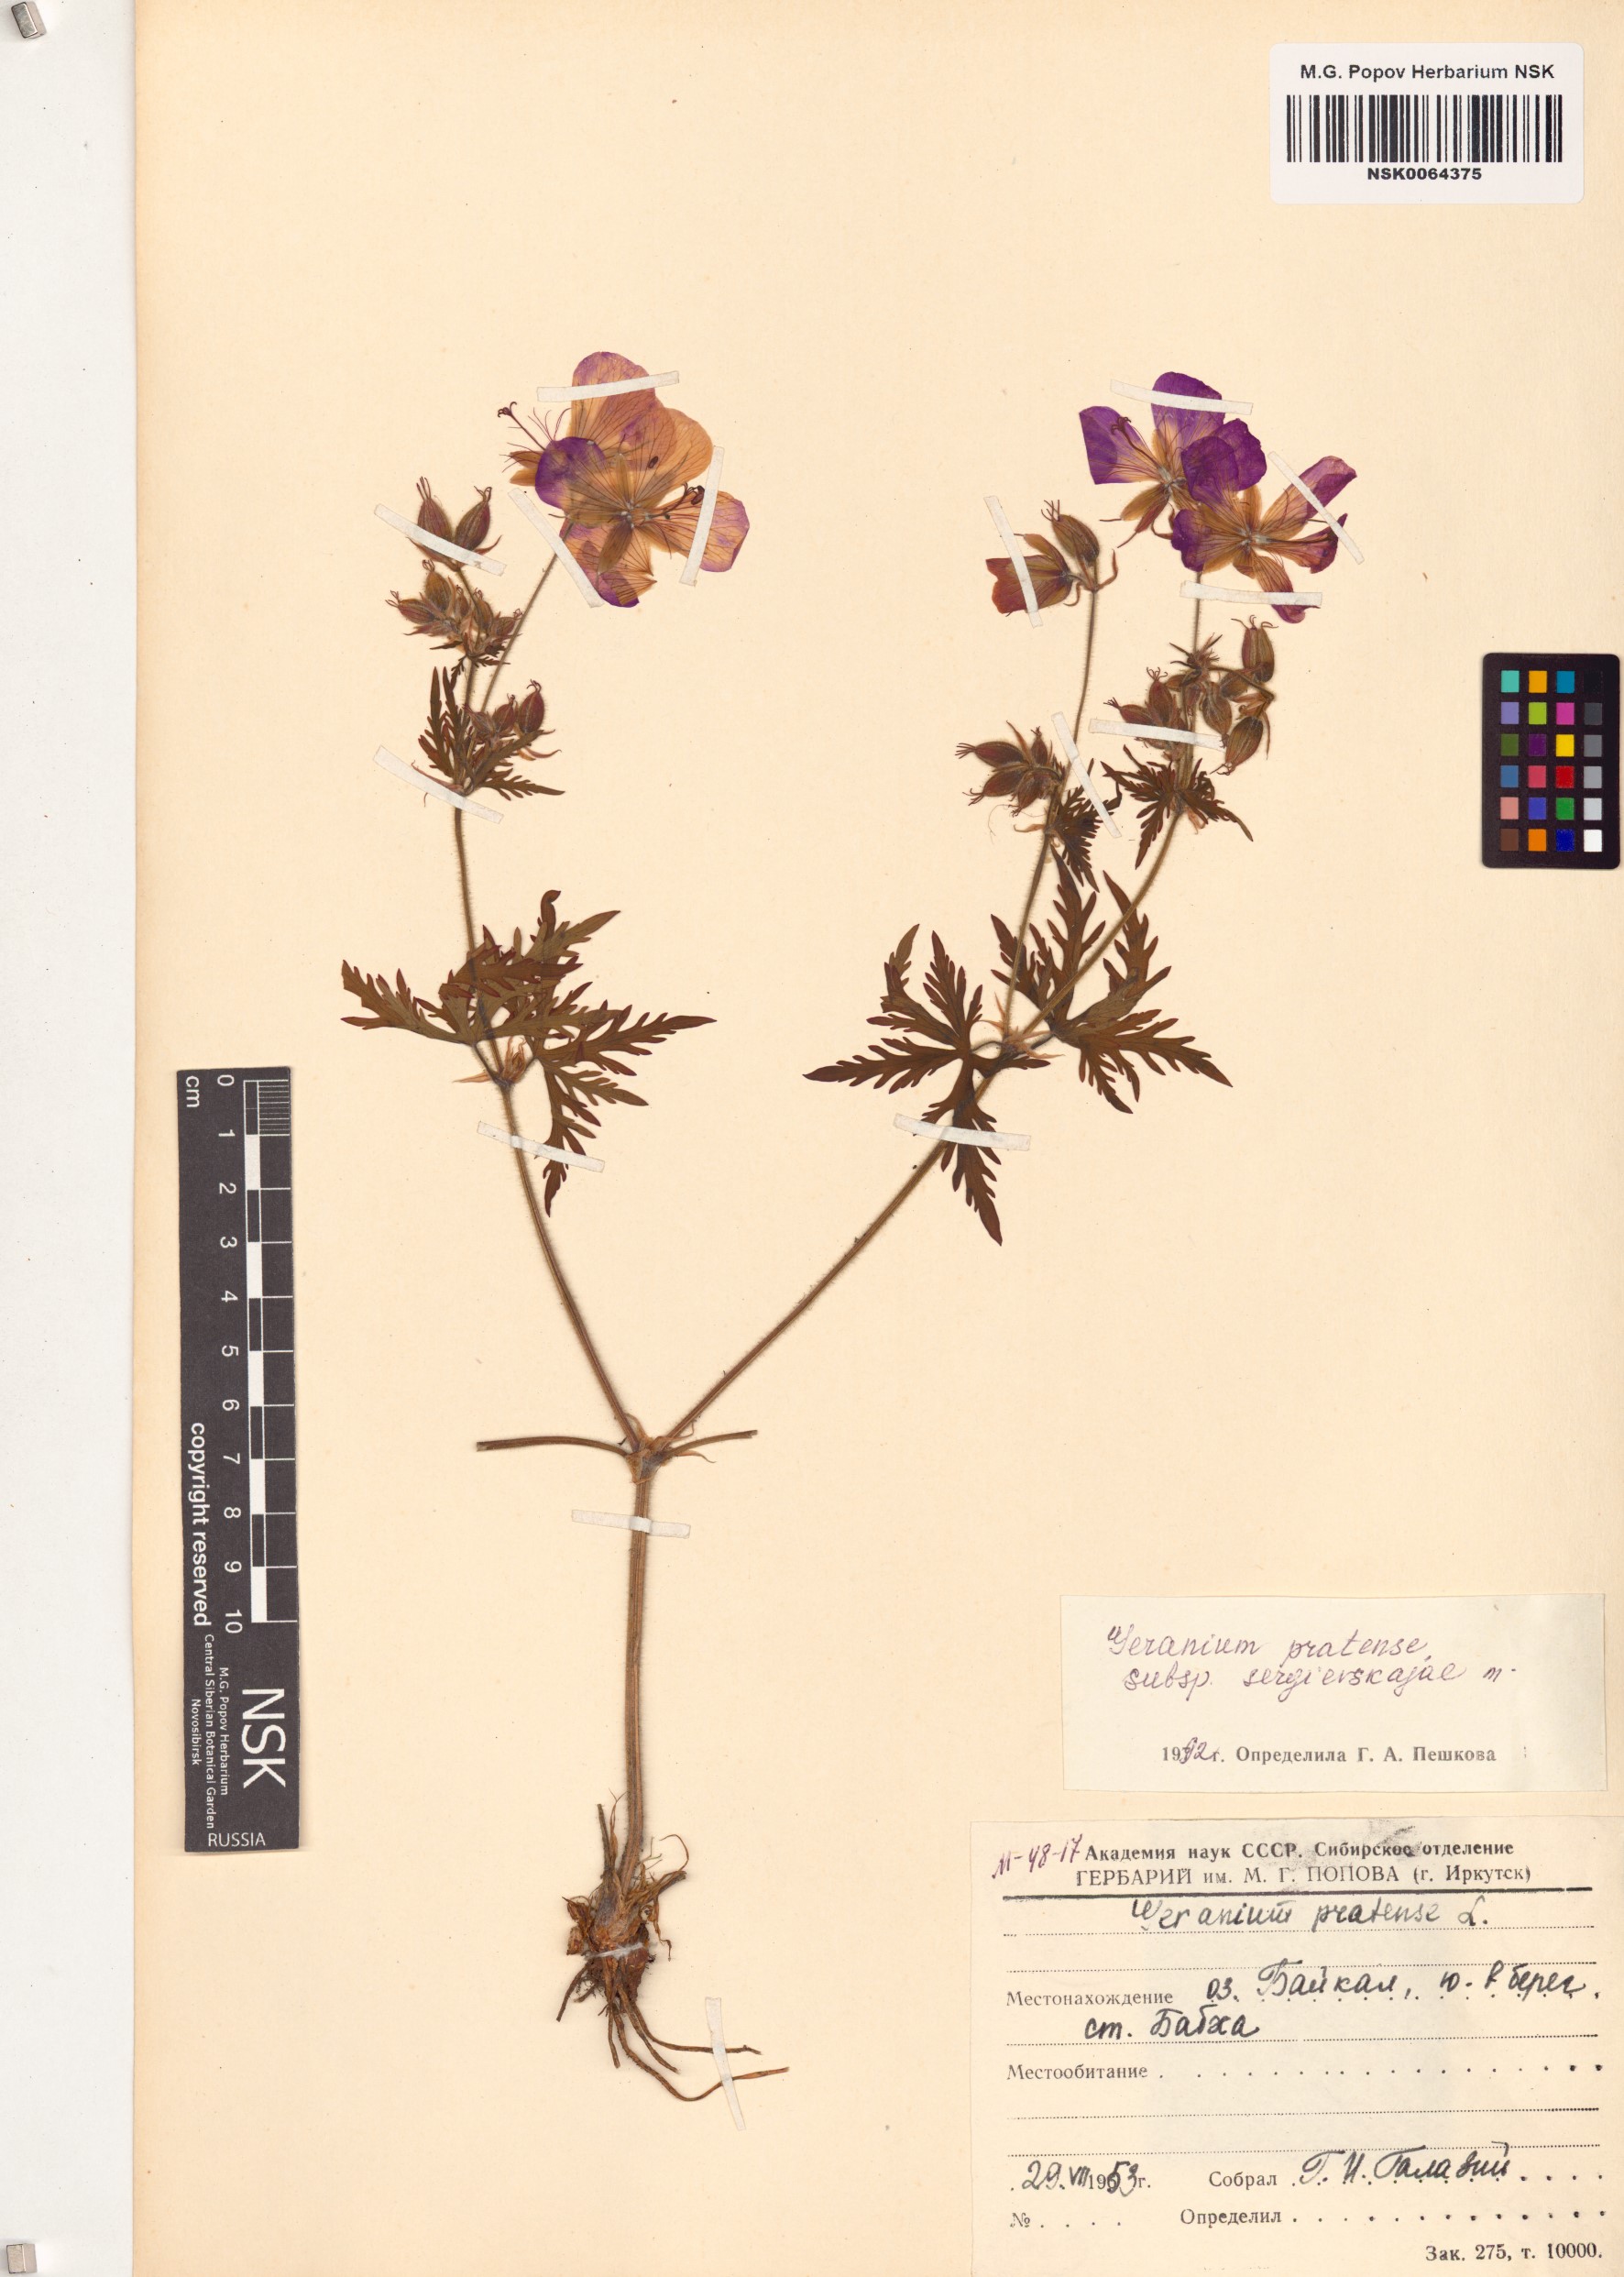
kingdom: Plantae
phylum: Tracheophyta
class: Magnoliopsida
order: Geraniales
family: Geraniaceae
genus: Geranium
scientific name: Geranium pratense
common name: Meadow crane's-bill
